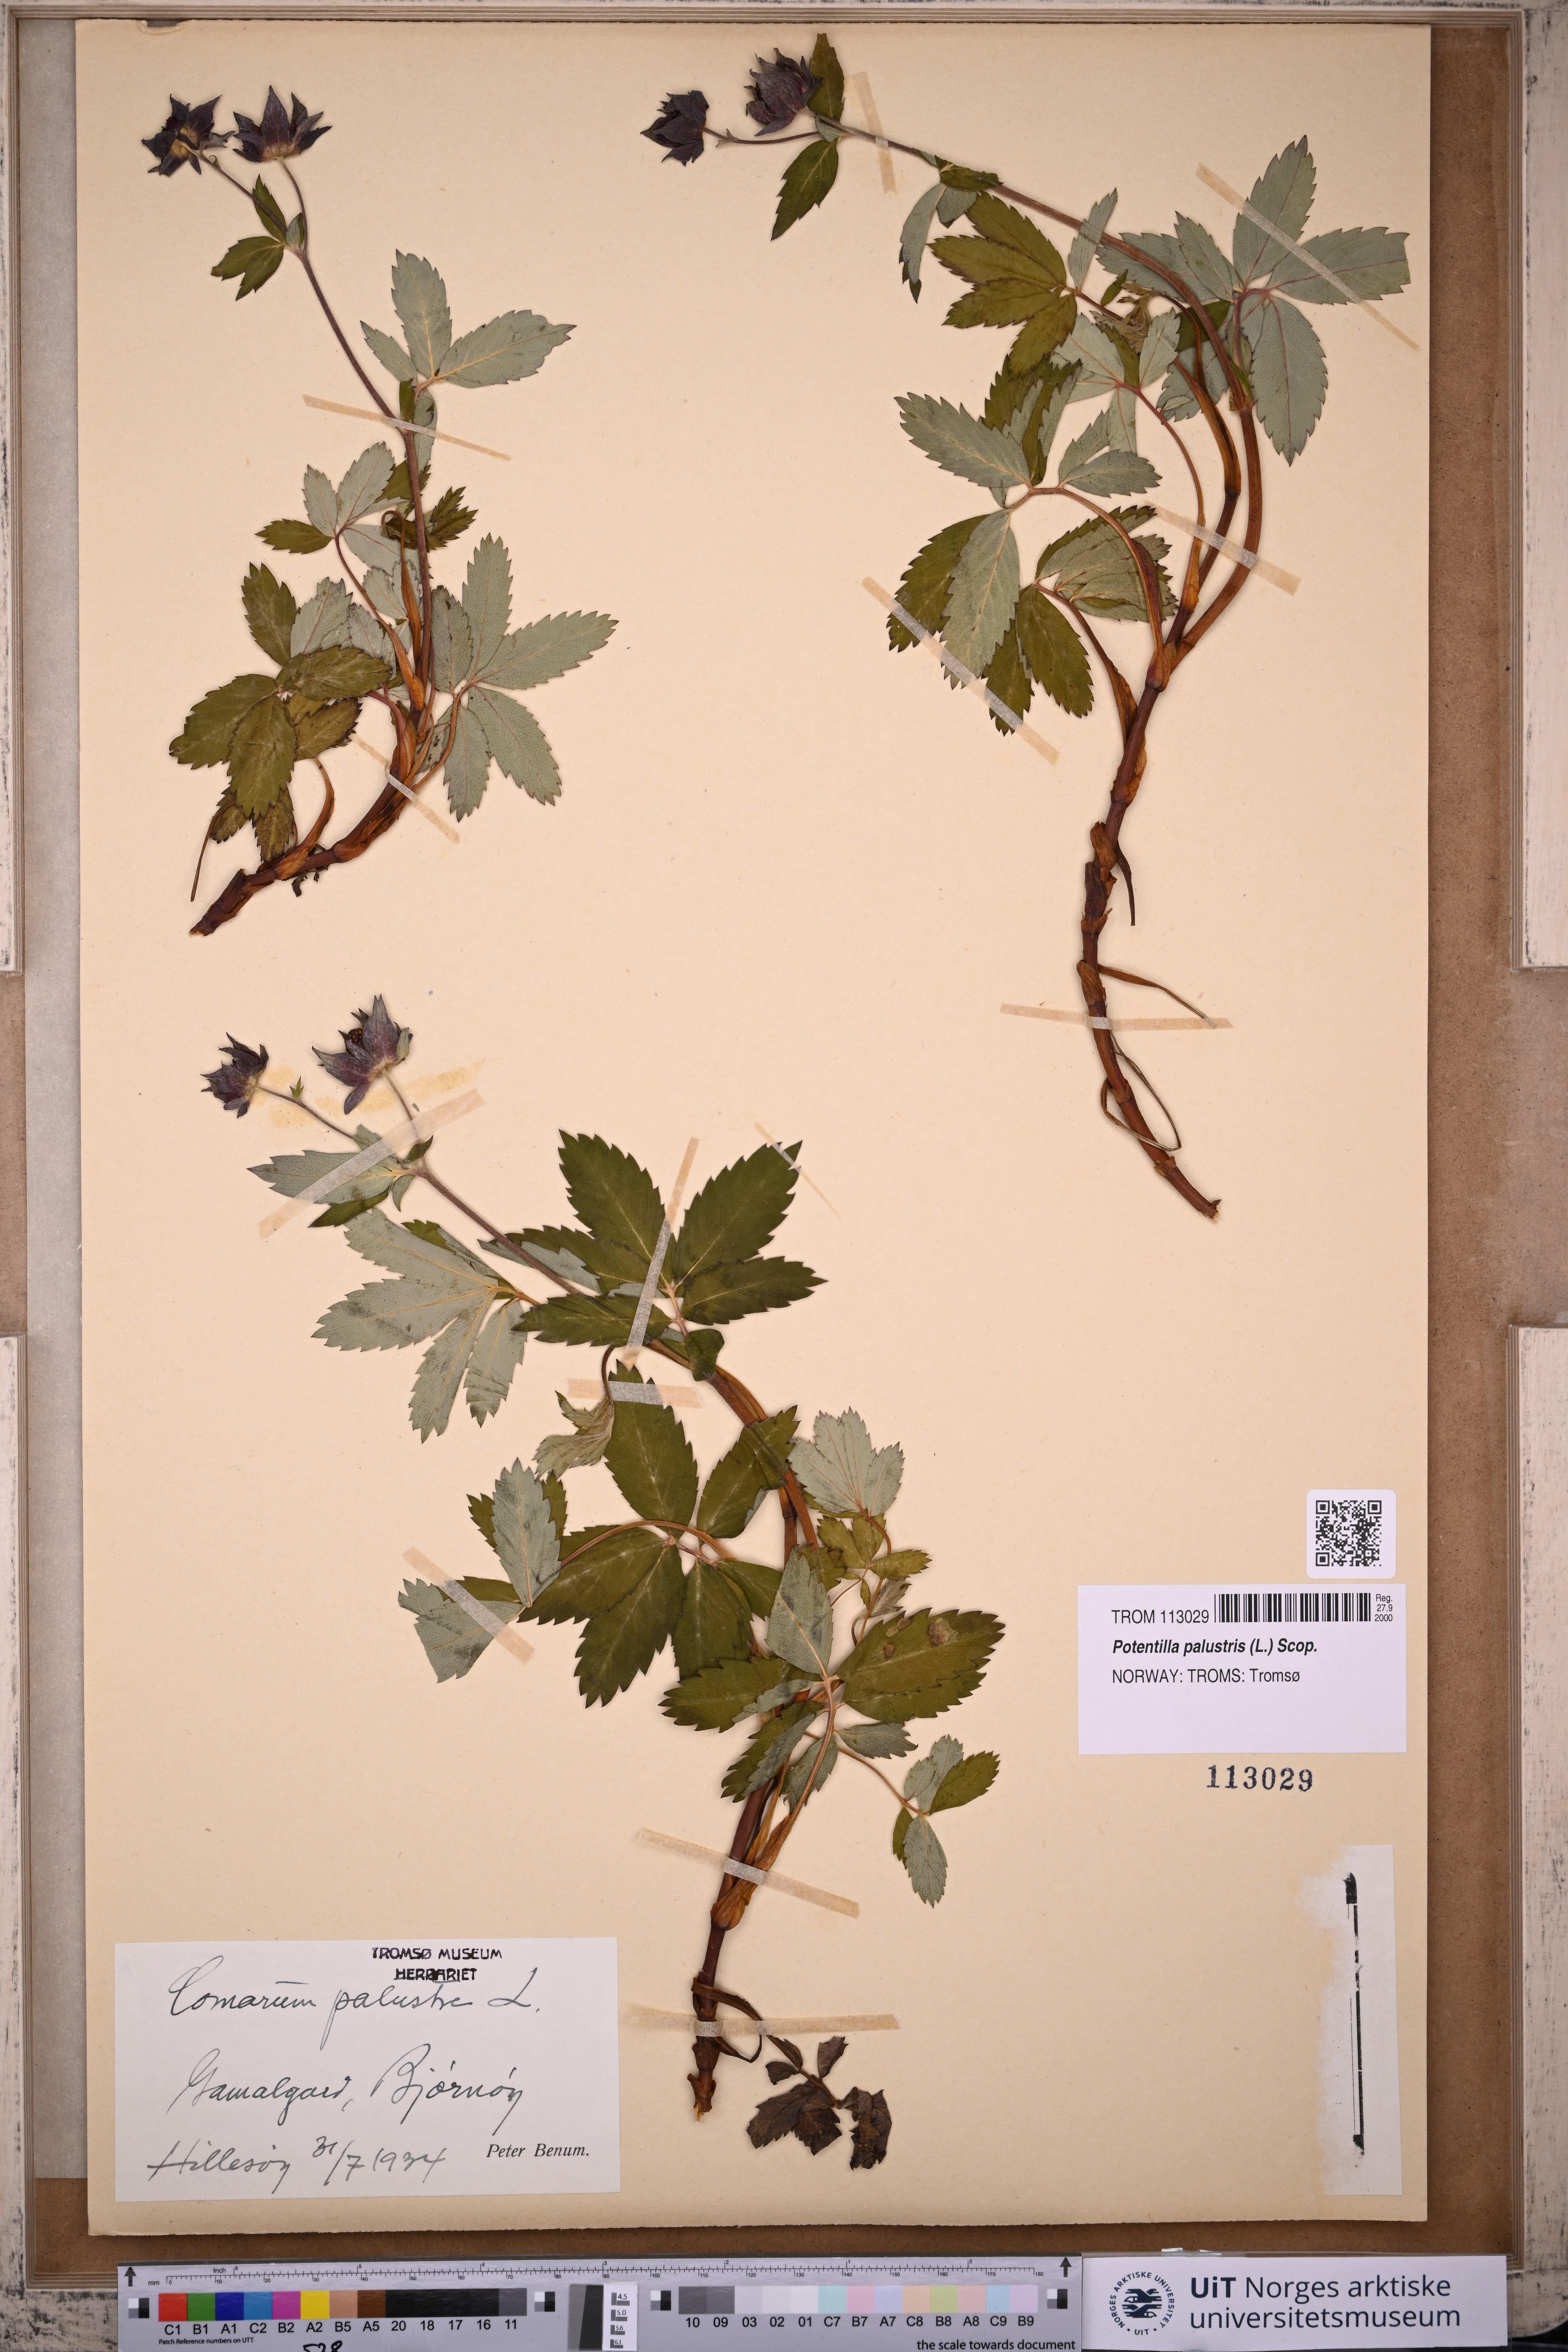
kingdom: Plantae
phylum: Tracheophyta
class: Magnoliopsida
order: Rosales
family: Rosaceae
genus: Comarum
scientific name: Comarum palustre
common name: Marsh cinquefoil
